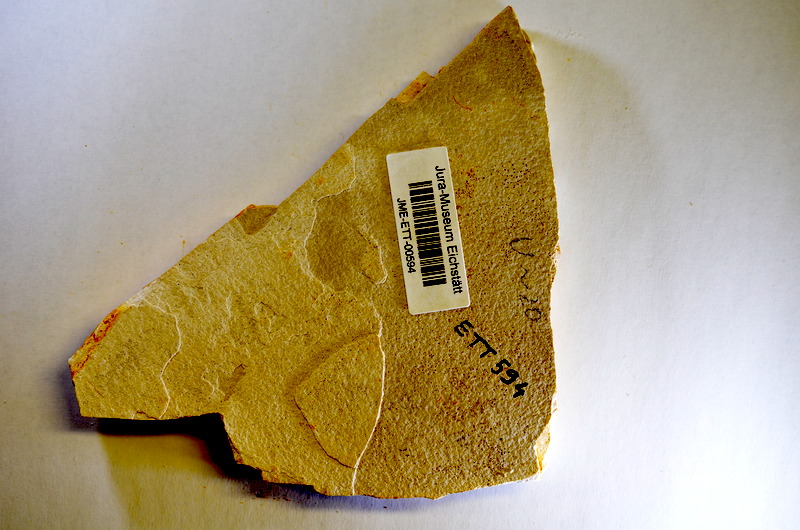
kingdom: Animalia
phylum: Chordata
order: Salmoniformes
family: Orthogonikleithridae
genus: Orthogonikleithrus
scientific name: Orthogonikleithrus hoelli
